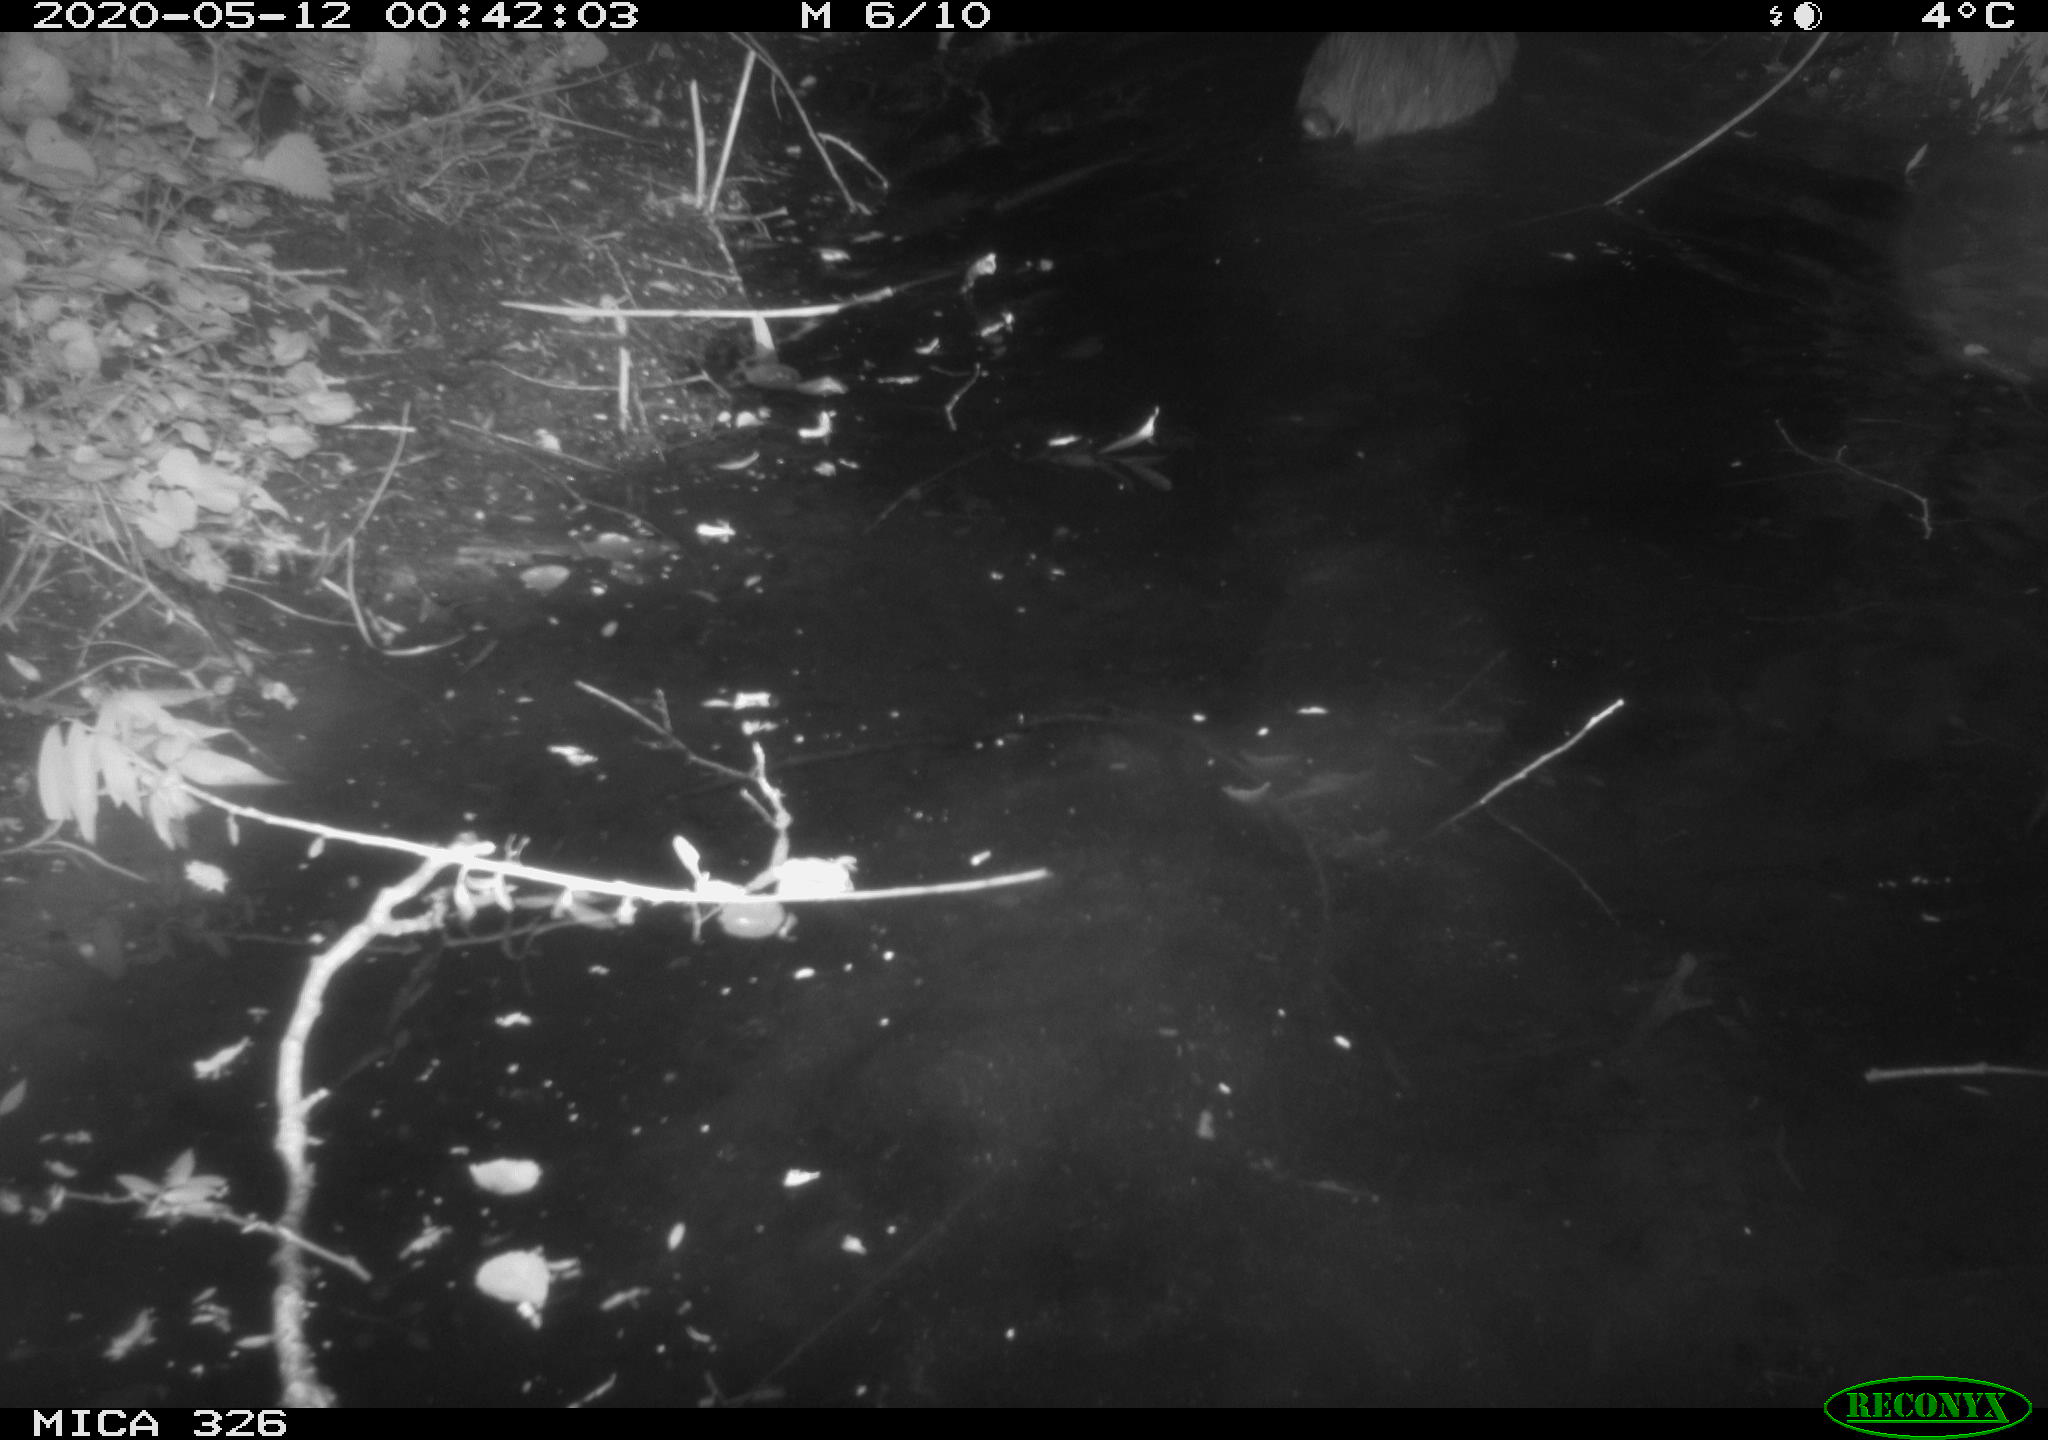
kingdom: Animalia
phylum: Chordata
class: Mammalia
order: Rodentia
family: Myocastoridae
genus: Myocastor
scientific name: Myocastor coypus
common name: Coypu
